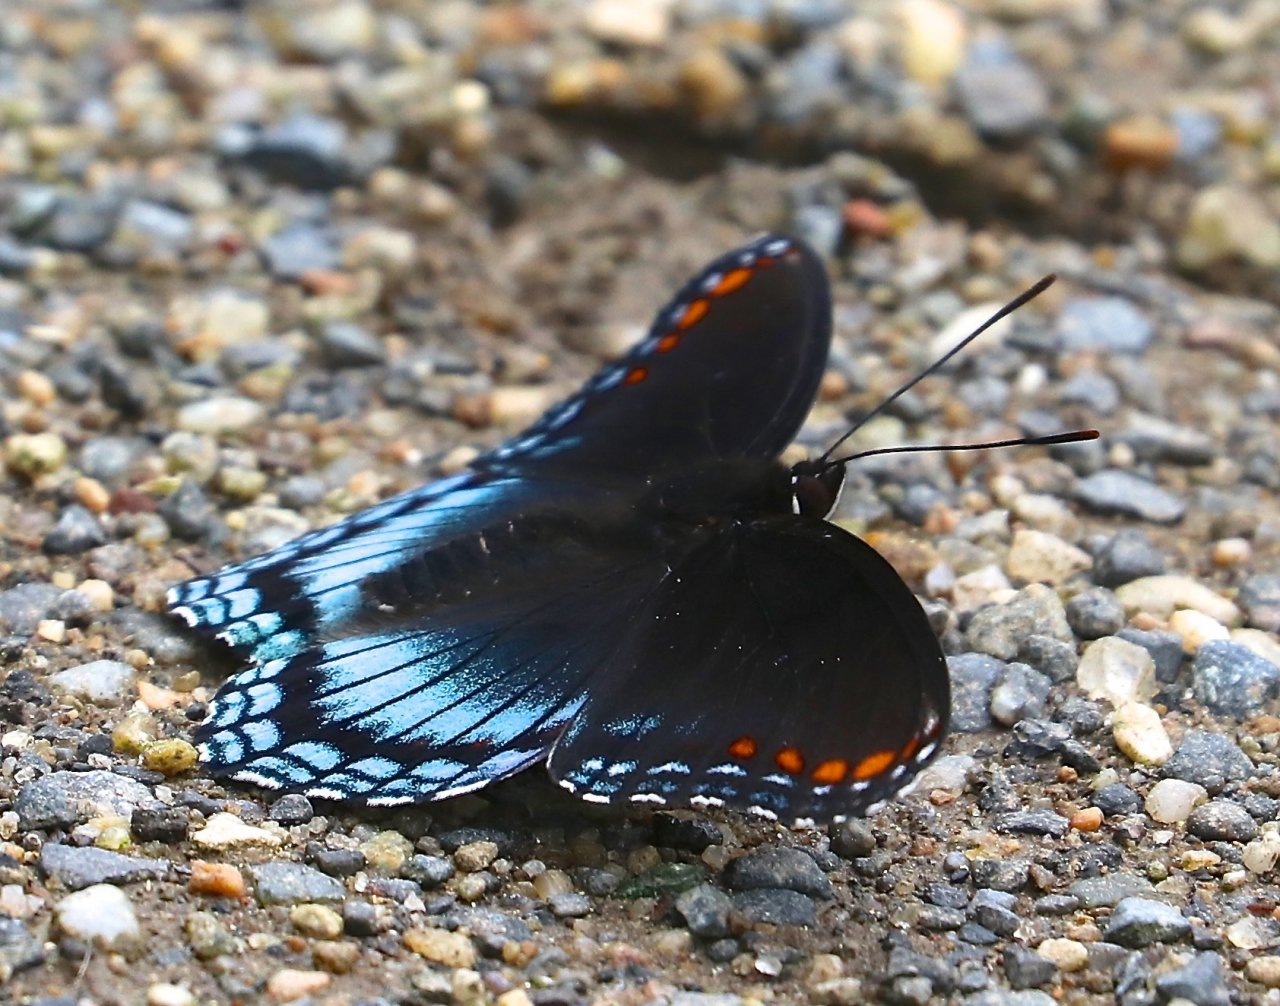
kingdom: Animalia
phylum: Arthropoda
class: Insecta
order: Lepidoptera
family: Nymphalidae
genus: Limenitis
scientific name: Limenitis astyanax
